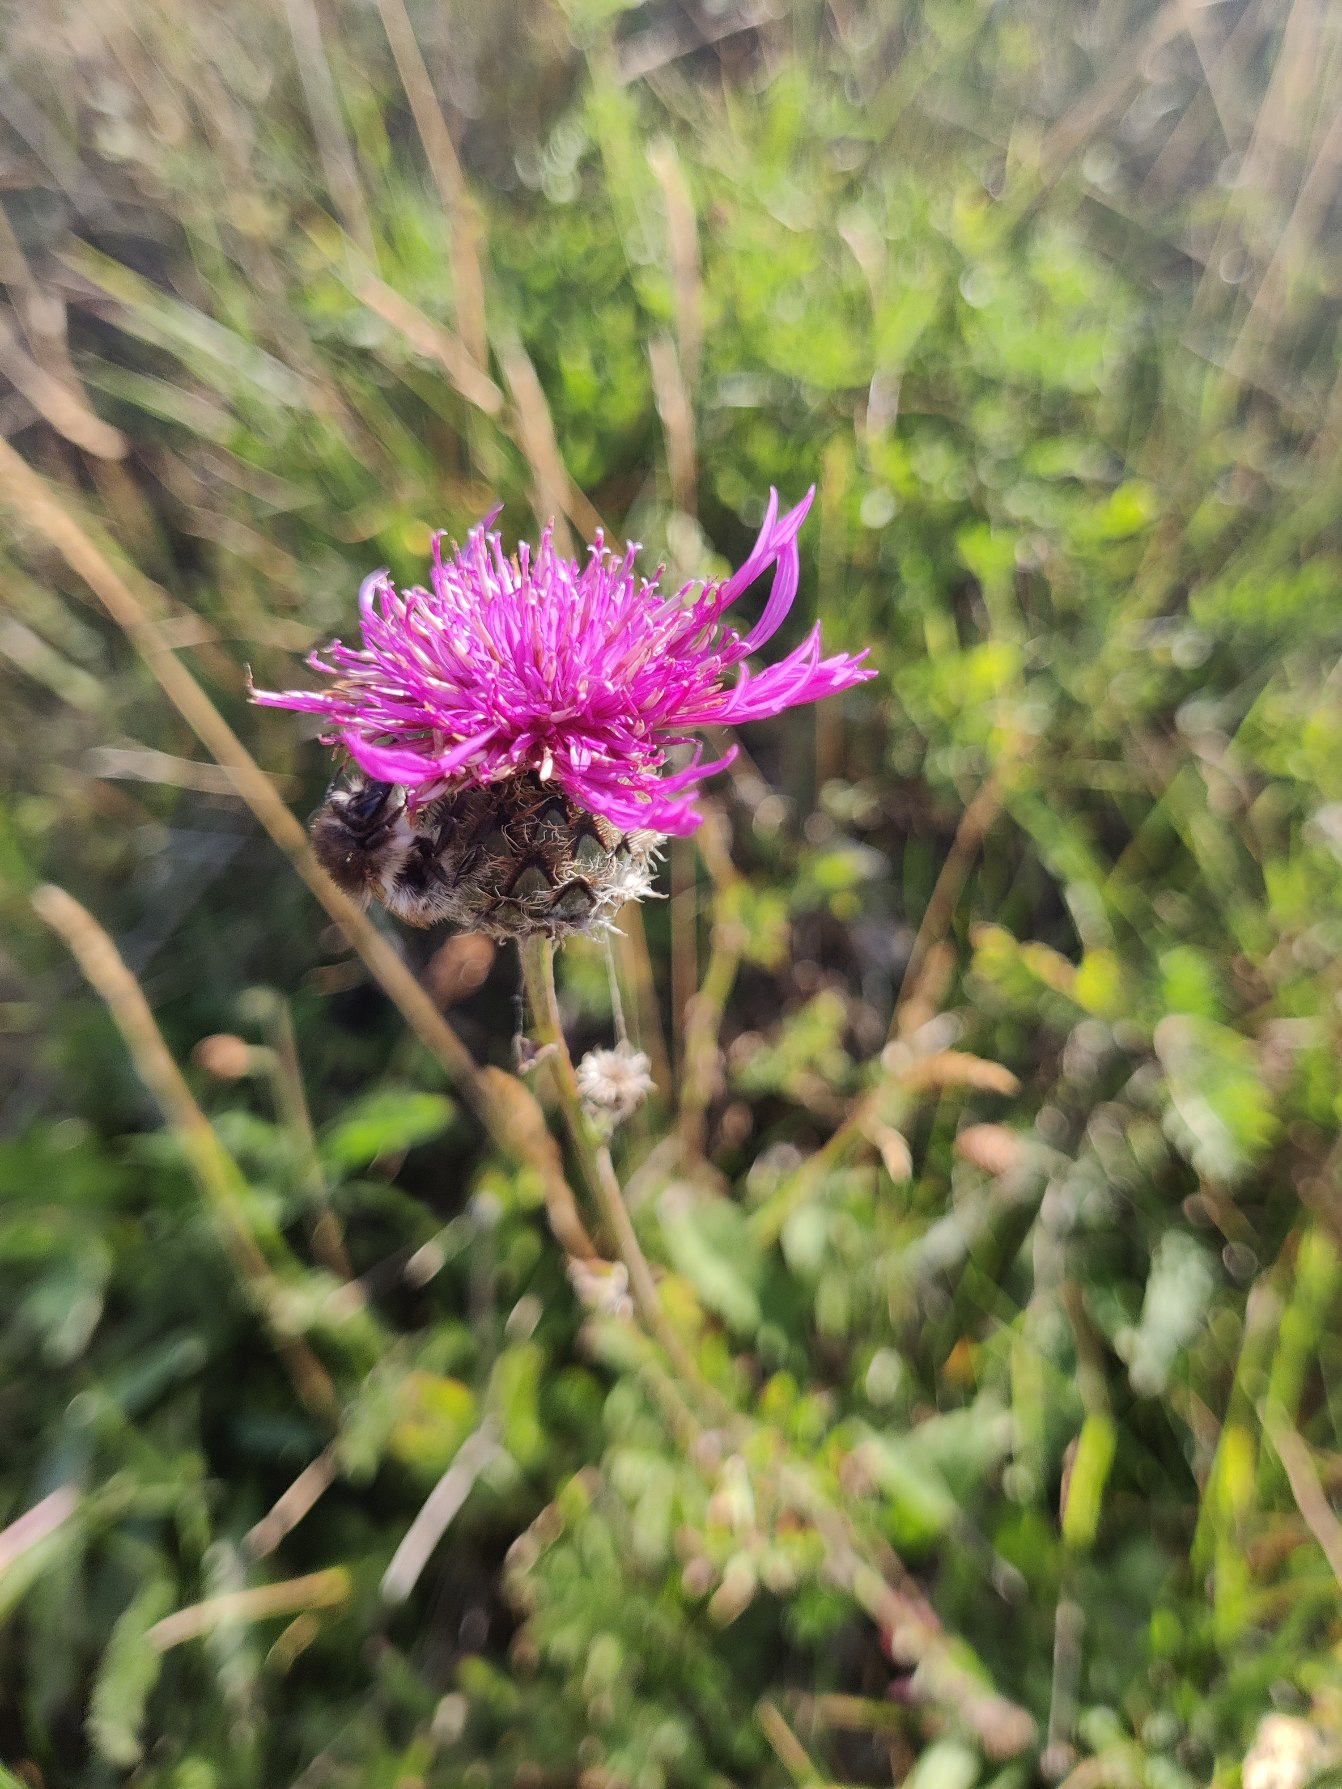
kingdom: Plantae
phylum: Tracheophyta
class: Magnoliopsida
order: Asterales
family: Asteraceae
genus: Centaurea
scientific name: Centaurea scabiosa
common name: Stor knopurt
